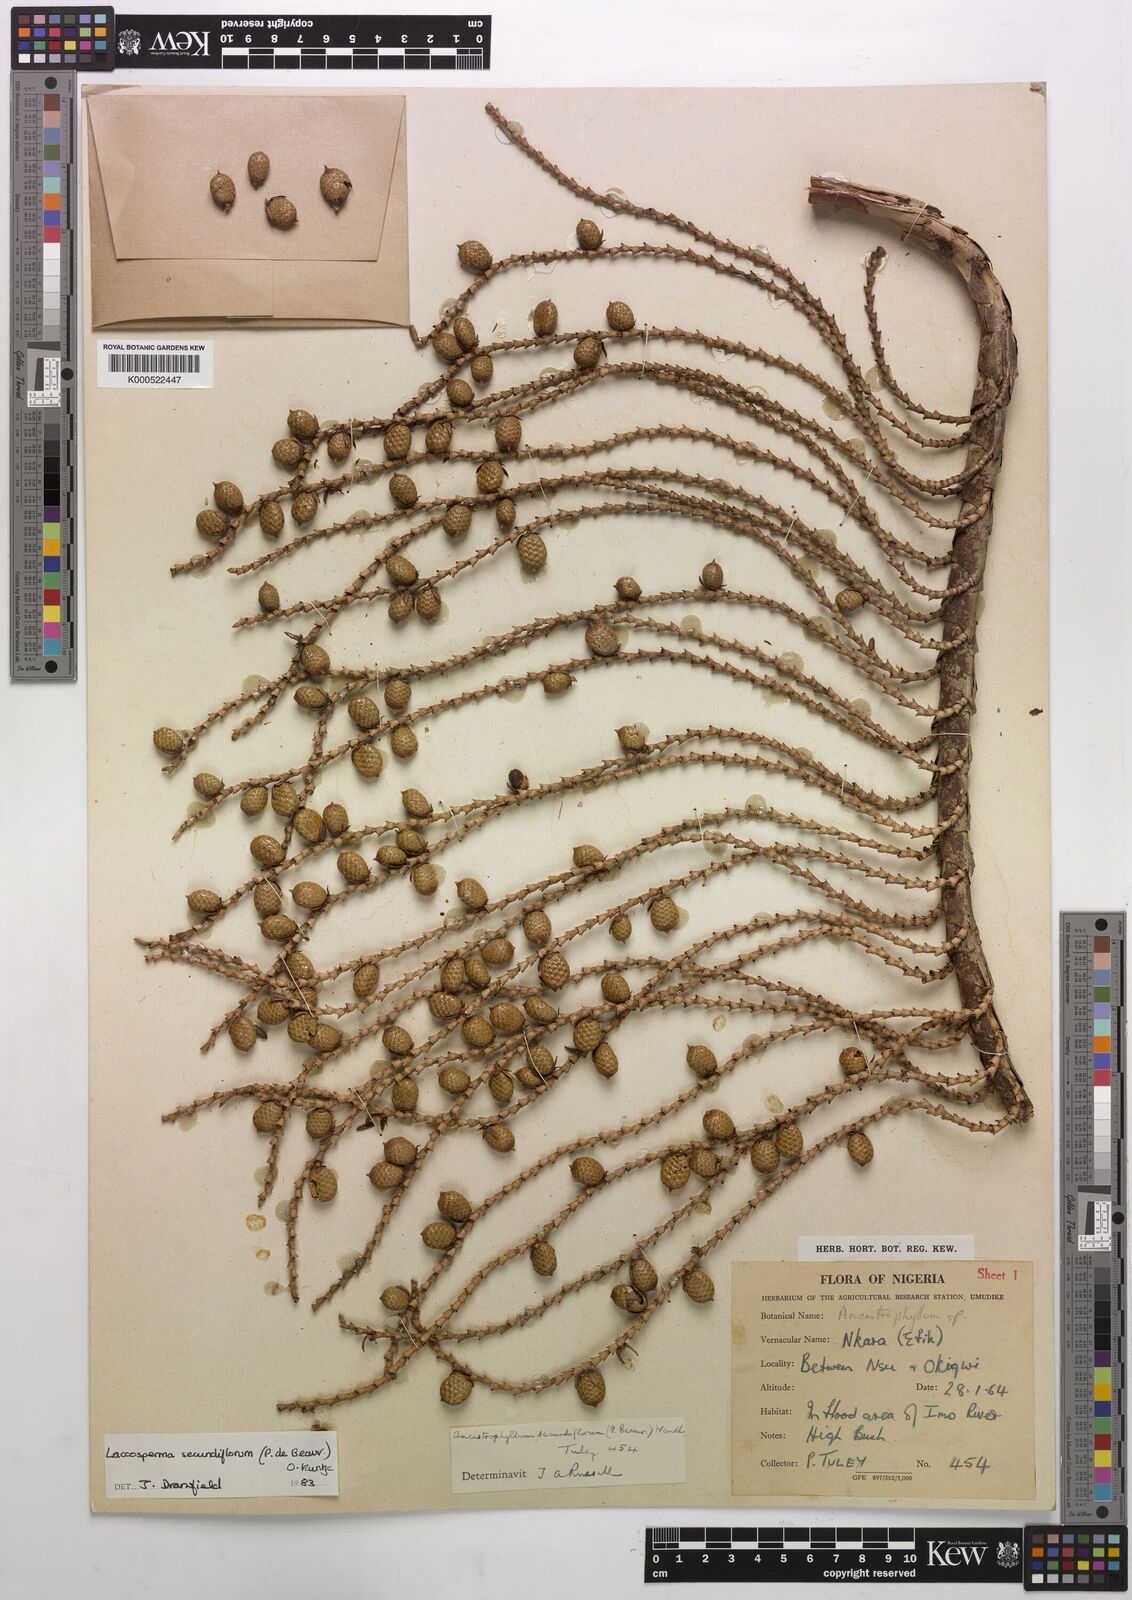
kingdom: Plantae
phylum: Tracheophyta
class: Liliopsida
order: Arecales
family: Arecaceae
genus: Laccosperma
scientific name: Laccosperma secundiflorum
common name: Rattan
